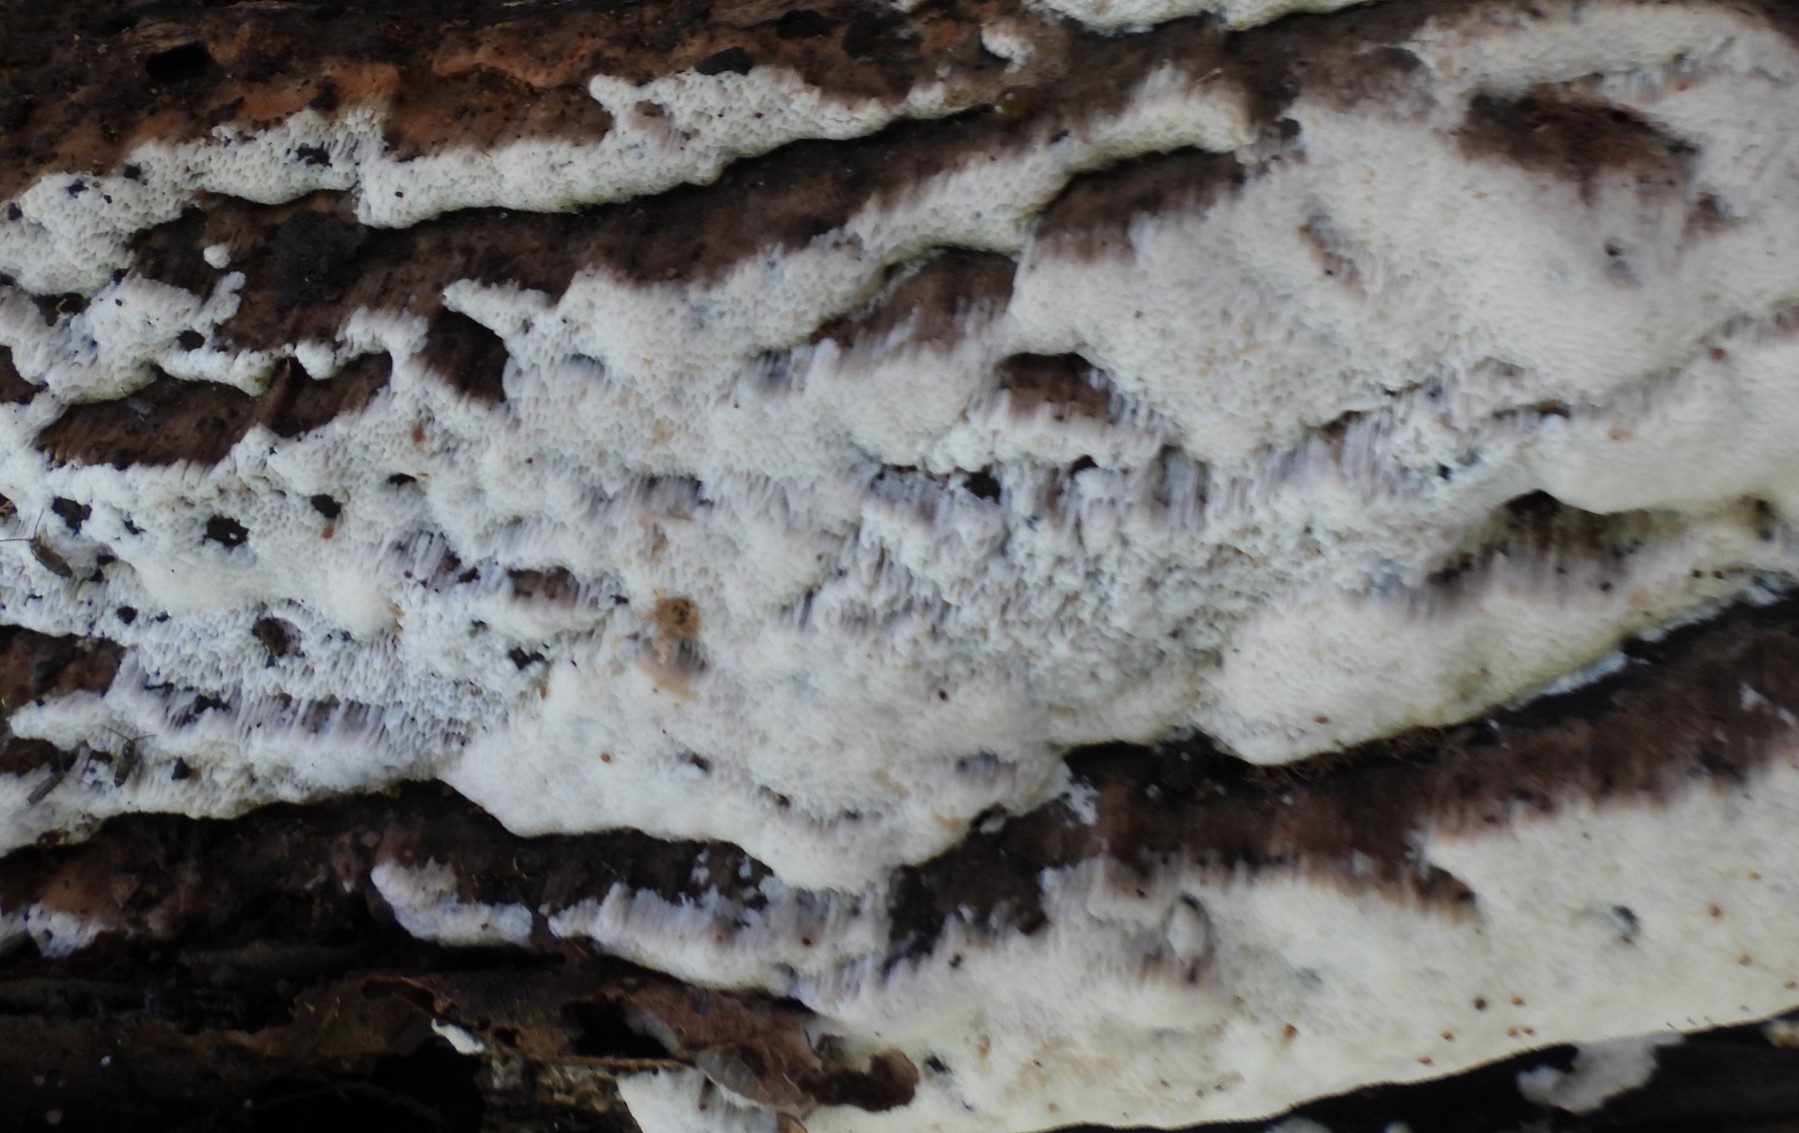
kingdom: Fungi
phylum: Basidiomycota
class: Agaricomycetes
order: Hymenochaetales
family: Hymenochaetaceae
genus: Mensularia
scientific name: Mensularia nodulosa
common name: bøge-spejlporesvamp
